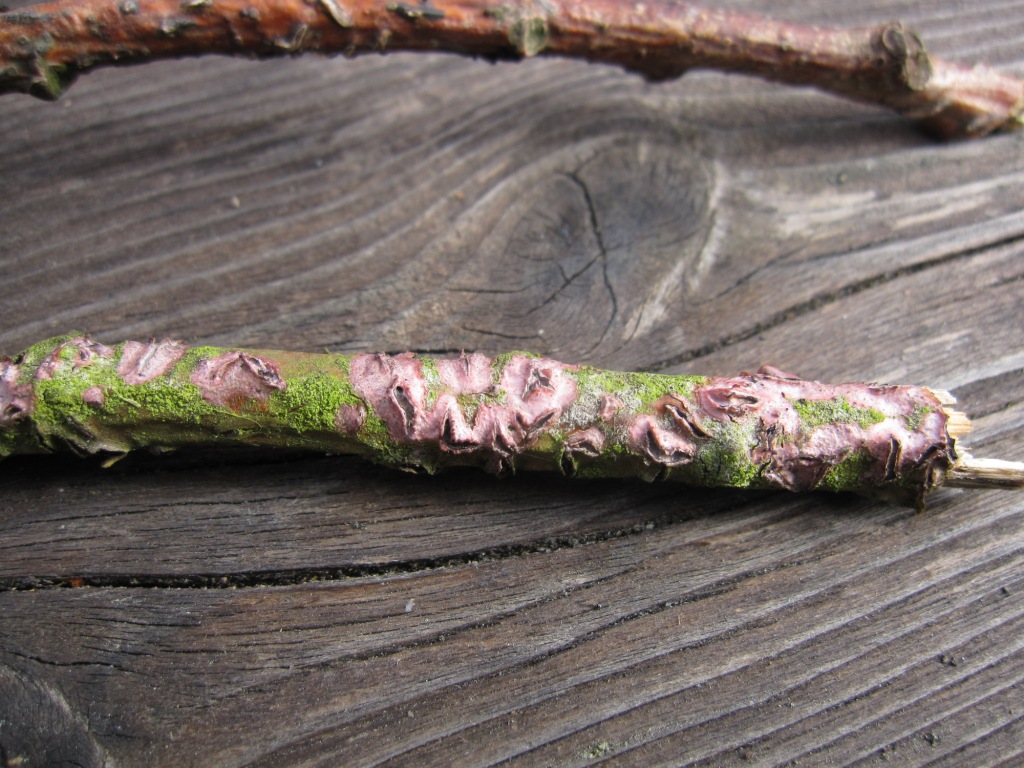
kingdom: Fungi
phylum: Basidiomycota
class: Agaricomycetes
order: Corticiales
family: Corticiaceae
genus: Marchandiomyces
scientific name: Marchandiomyces aurantioroseus
